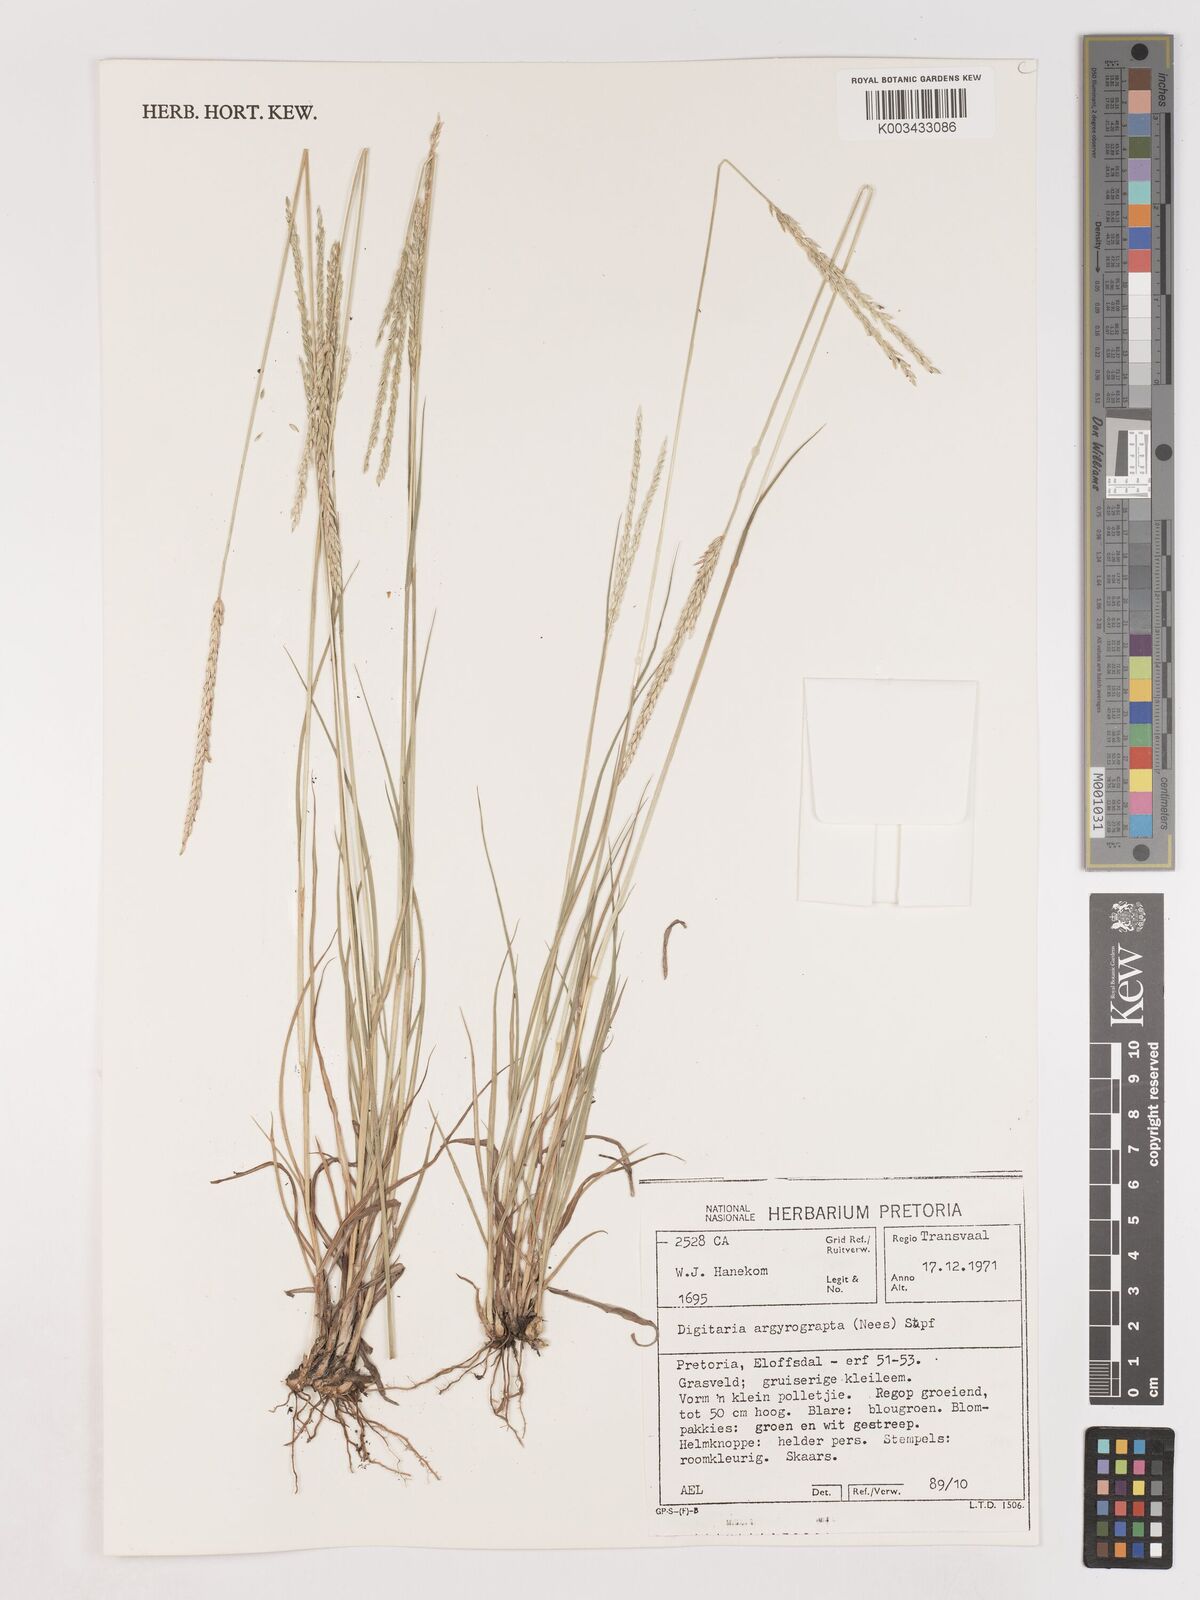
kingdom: Plantae
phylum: Tracheophyta
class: Liliopsida
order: Poales
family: Poaceae
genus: Digitaria
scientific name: Digitaria argyrograpta
